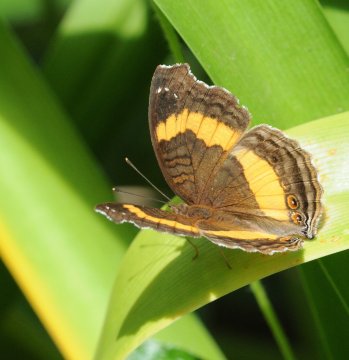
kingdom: Animalia
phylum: Arthropoda
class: Insecta
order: Lepidoptera
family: Nymphalidae
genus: Junonia
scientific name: Junonia terea
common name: Soldier Pansy
